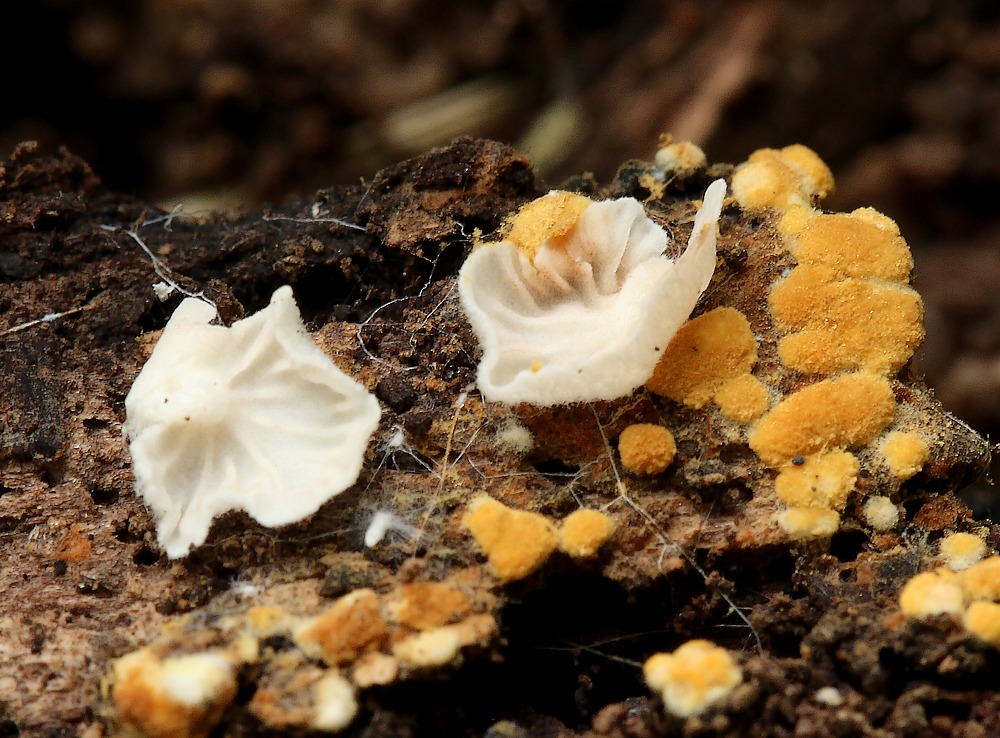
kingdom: Fungi
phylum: Basidiomycota
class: Agaricomycetes
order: Agaricales
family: Entolomataceae
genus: Entoloma
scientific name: Entoloma
